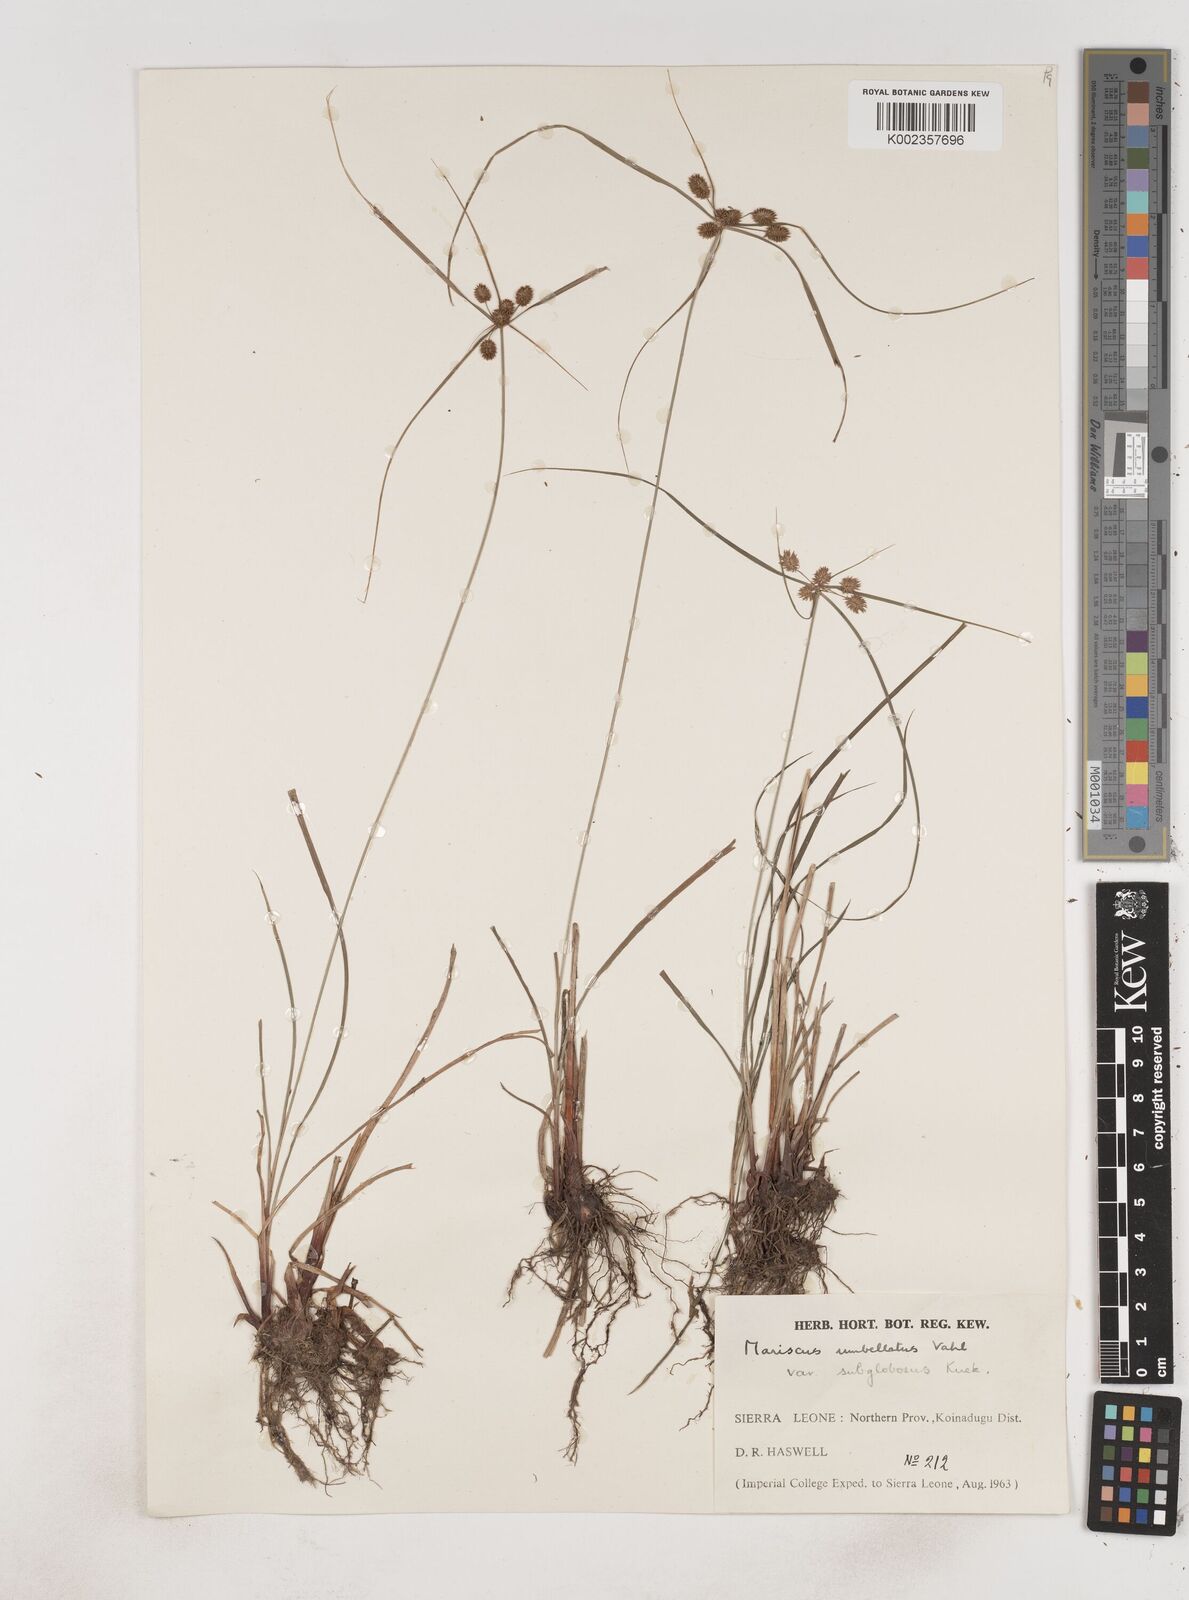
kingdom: Plantae
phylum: Tracheophyta
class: Liliopsida
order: Poales
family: Cyperaceae
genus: Cyperus
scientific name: Cyperus sublimis
